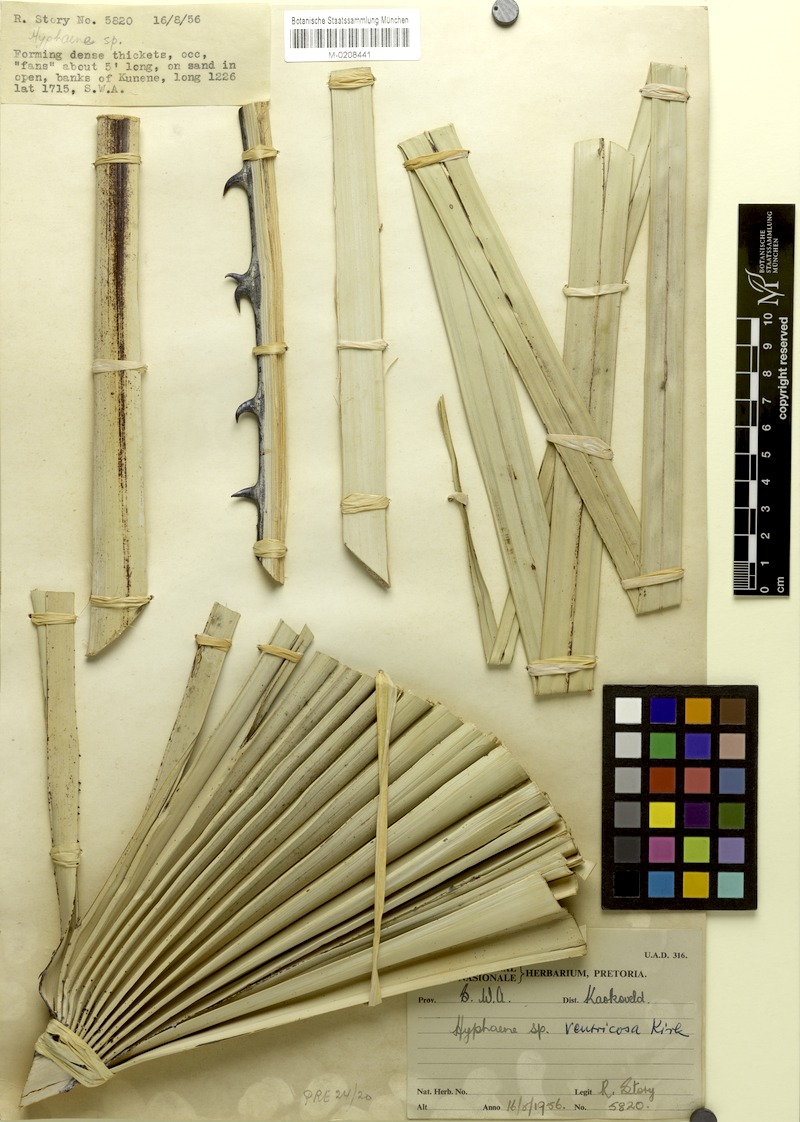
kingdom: Plantae
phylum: Tracheophyta
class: Liliopsida
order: Arecales
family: Arecaceae
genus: Hyphaene
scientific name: Hyphaene petersiana
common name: African ivory nut palm
